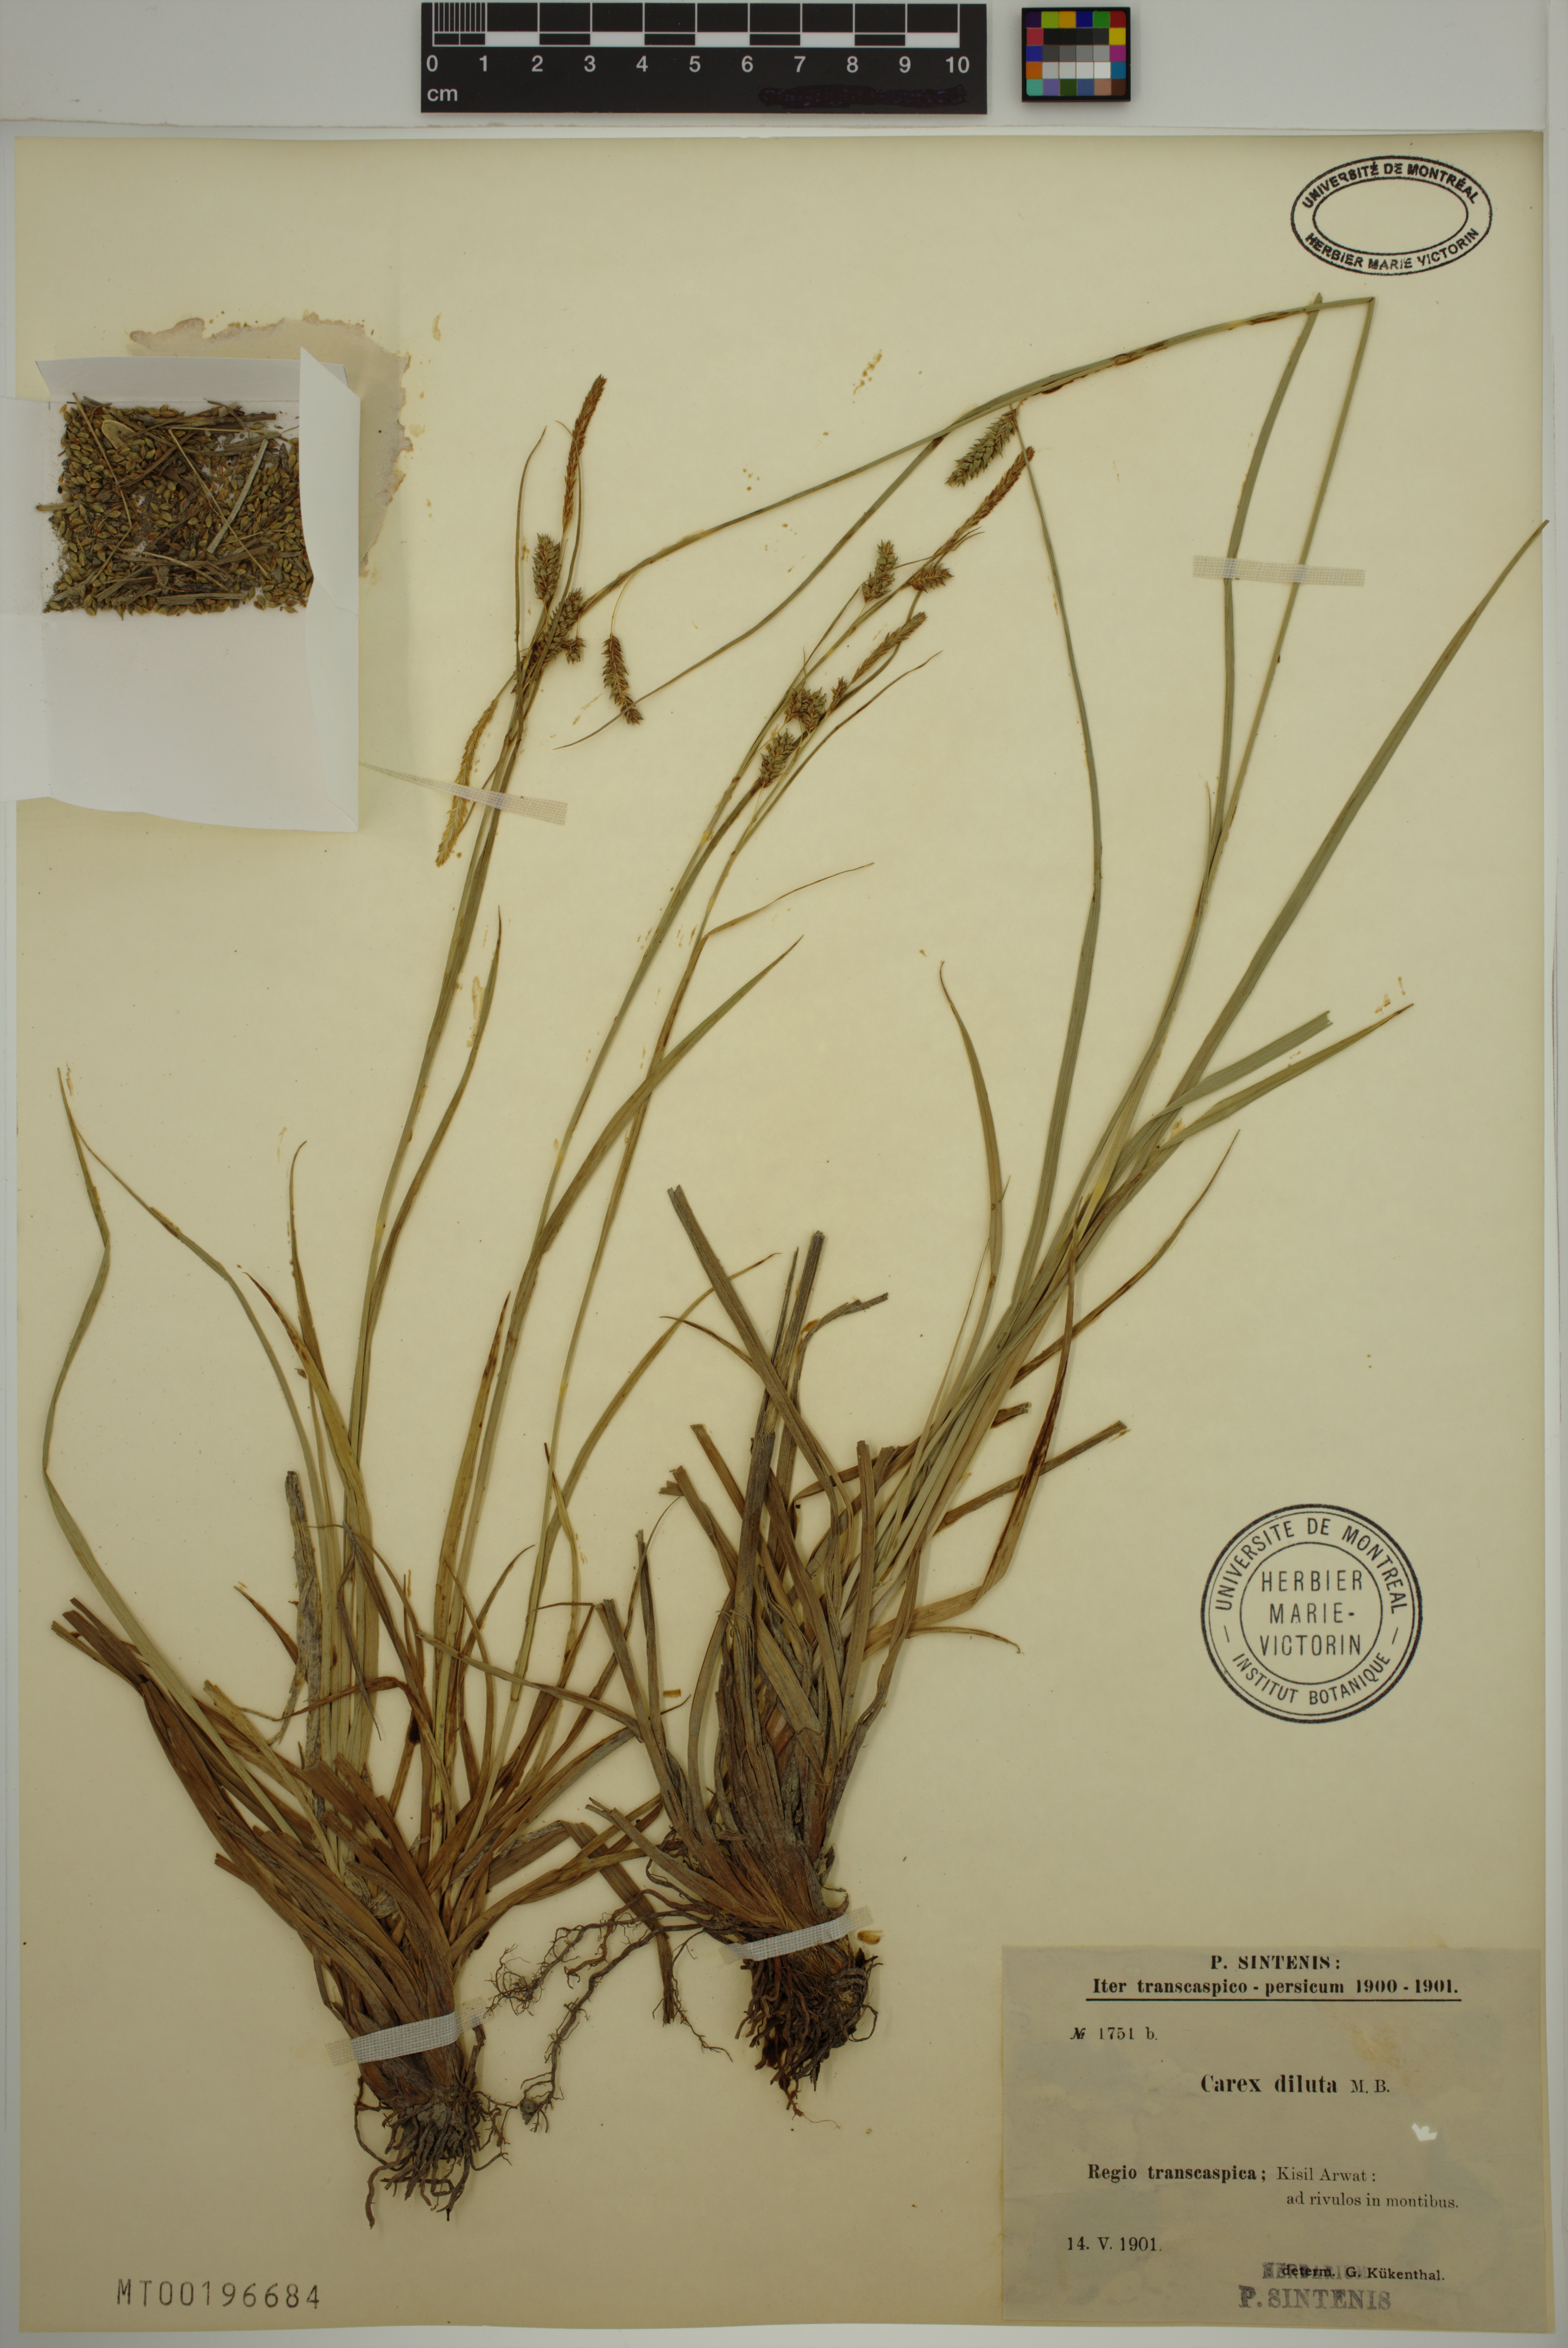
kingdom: Plantae
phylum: Tracheophyta
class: Liliopsida
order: Poales
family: Cyperaceae
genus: Carex
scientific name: Carex diluta
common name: Sedge
